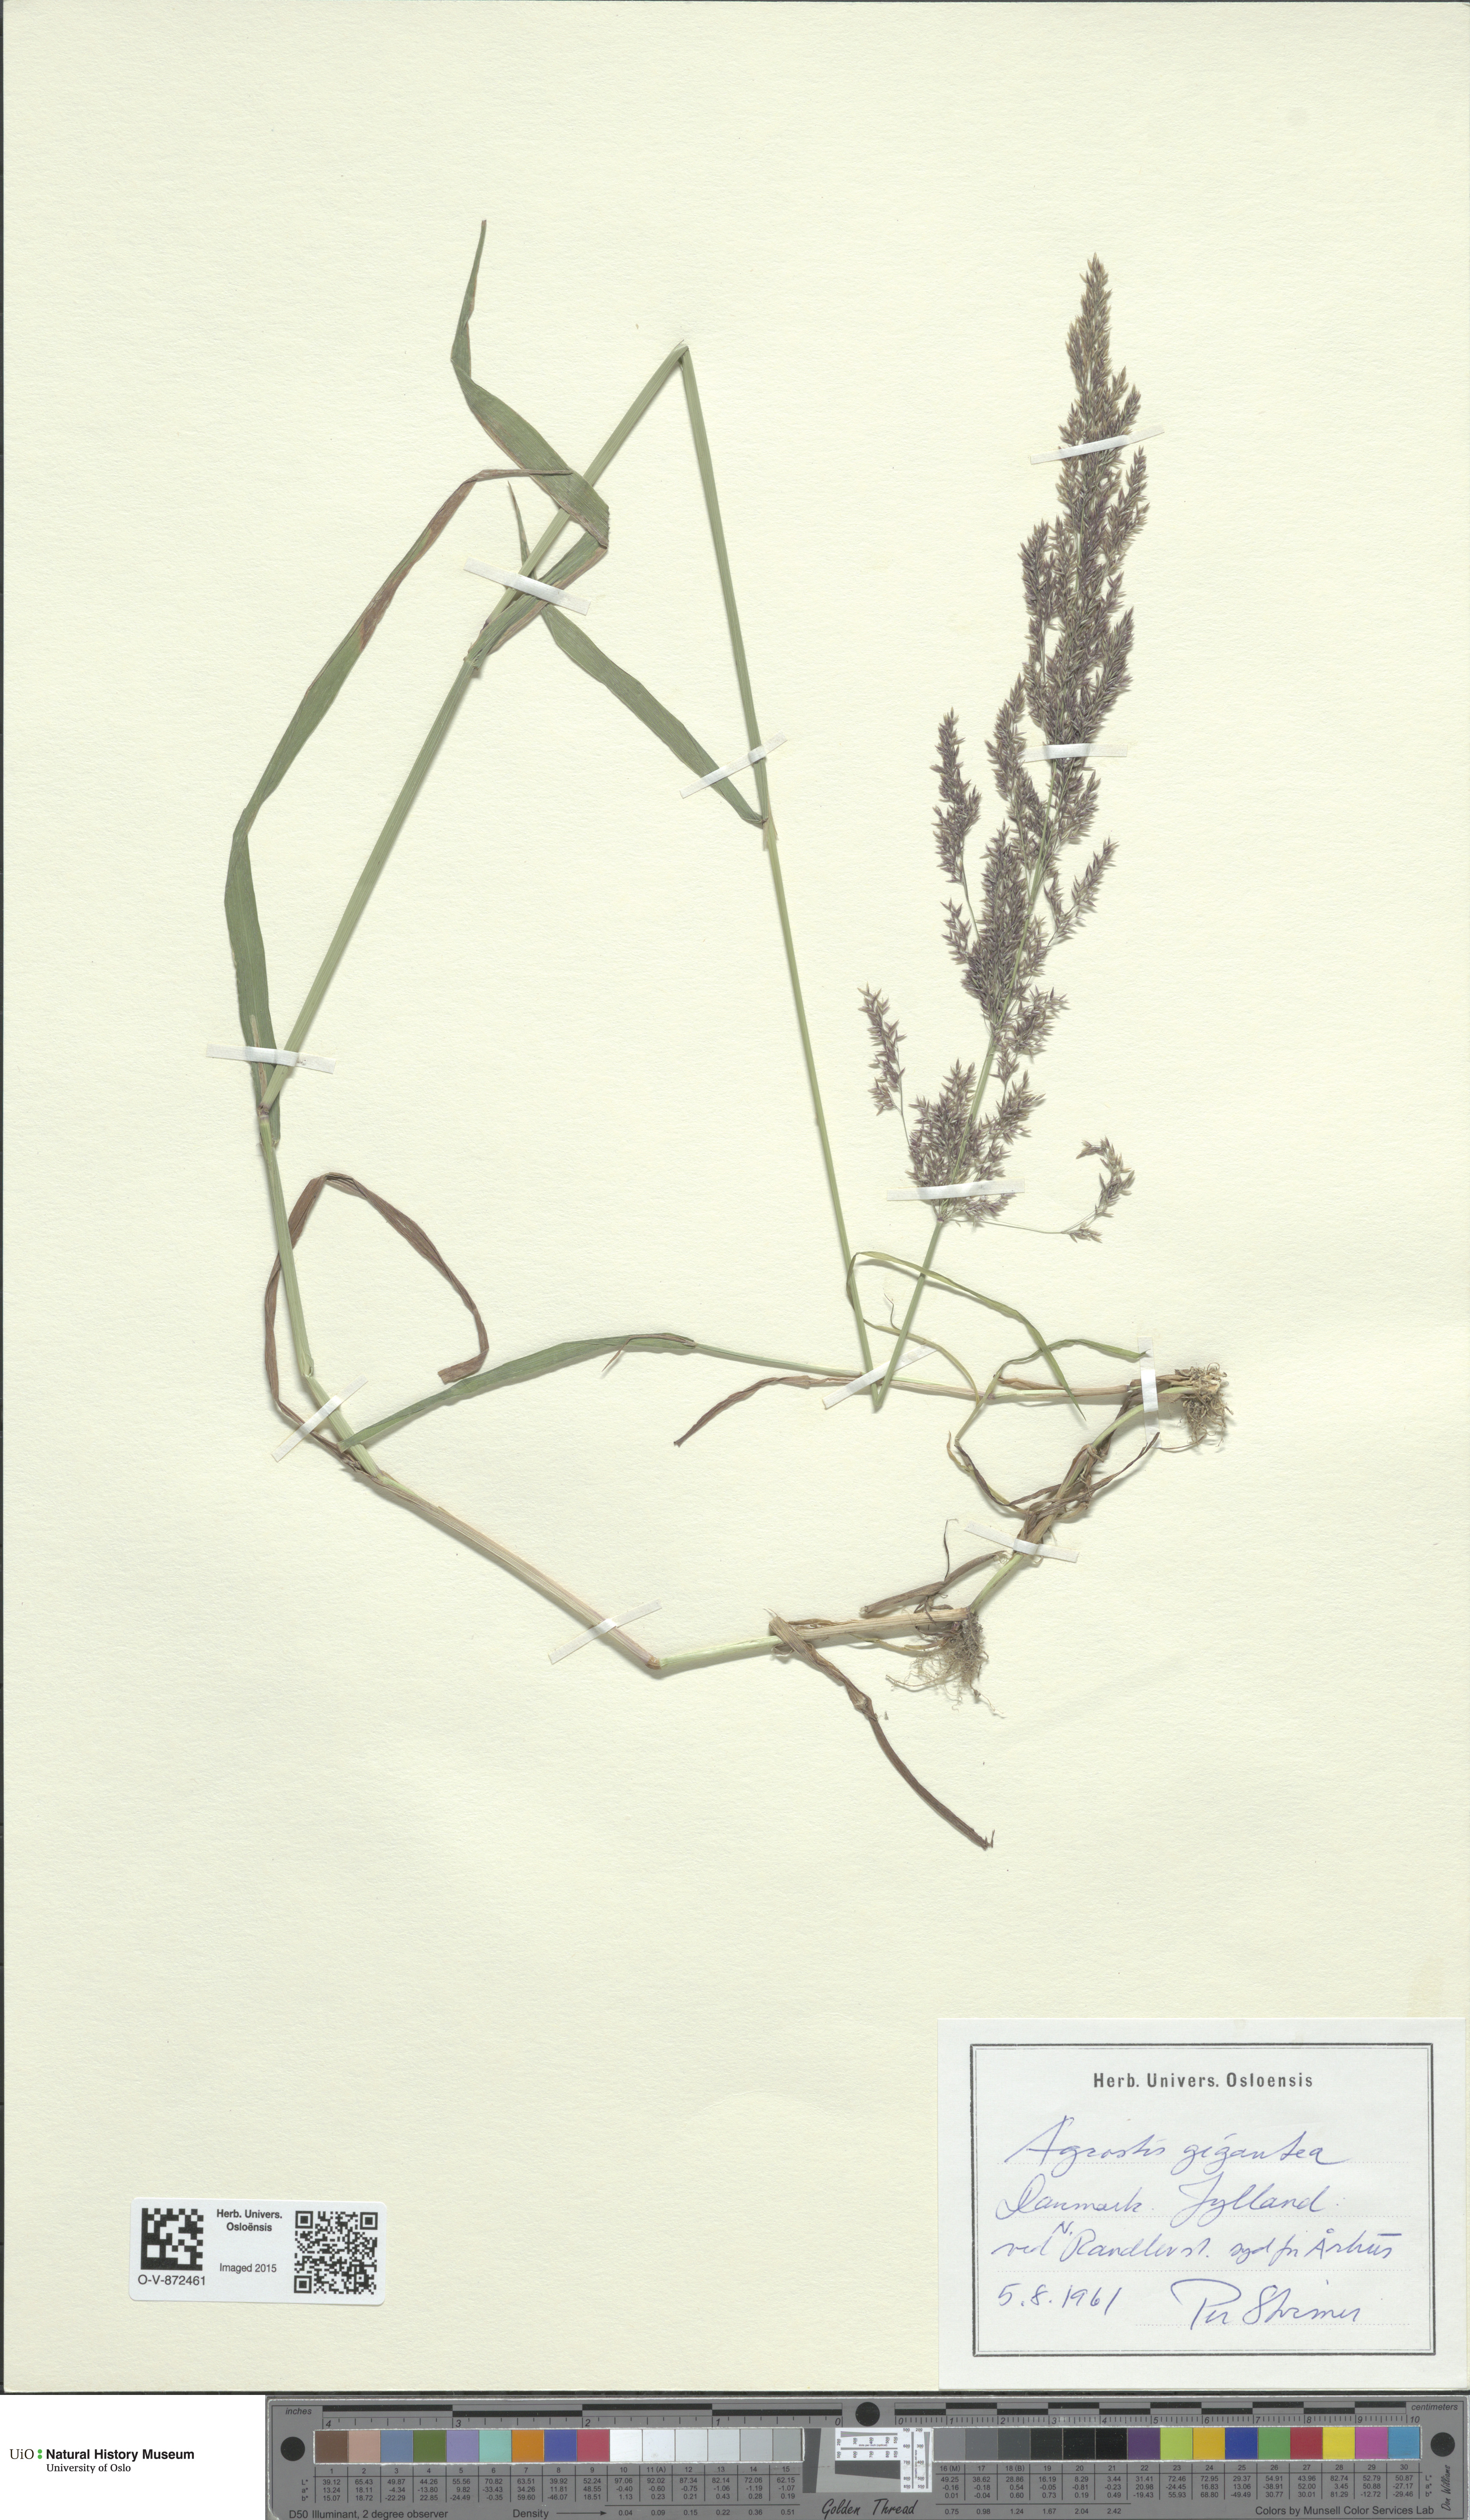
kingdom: Plantae
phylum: Tracheophyta
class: Liliopsida
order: Poales
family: Poaceae
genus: Agrostis
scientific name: Agrostis gigantea
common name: Black bent
